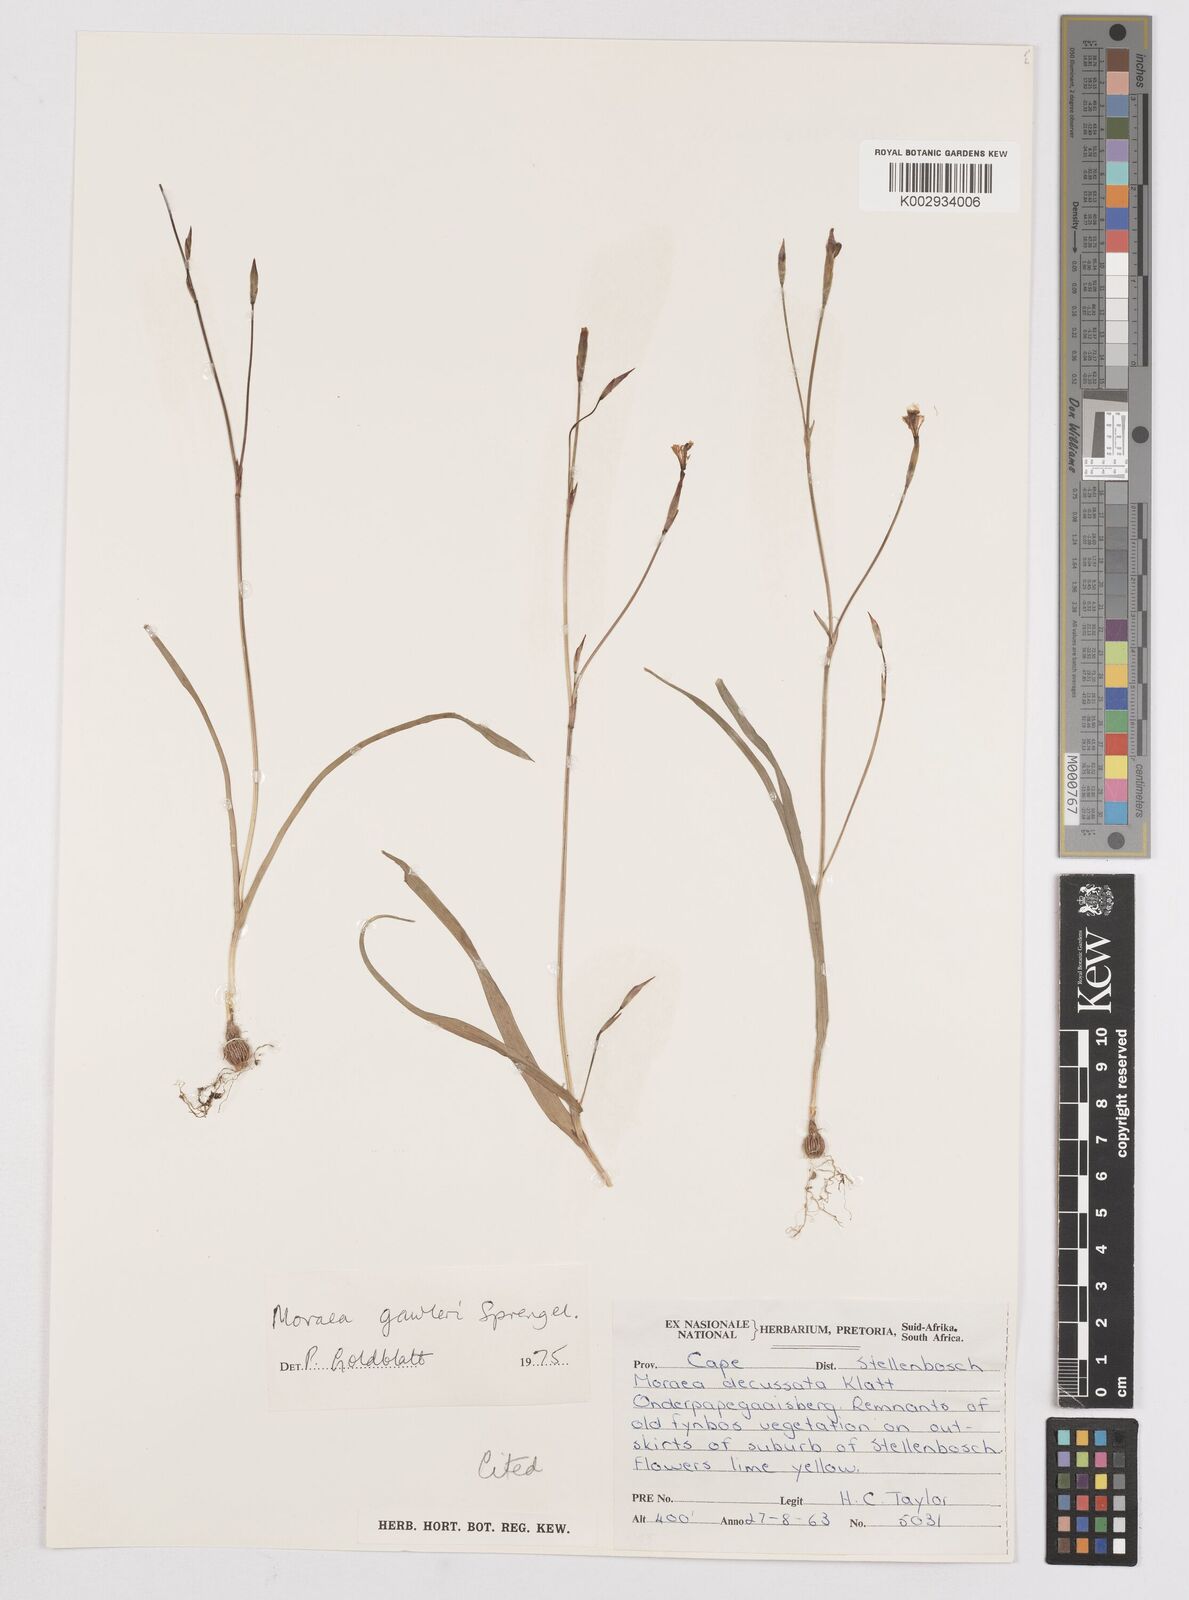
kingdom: Plantae
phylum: Tracheophyta
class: Liliopsida
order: Asparagales
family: Iridaceae
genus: Moraea
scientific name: Moraea gawleri
